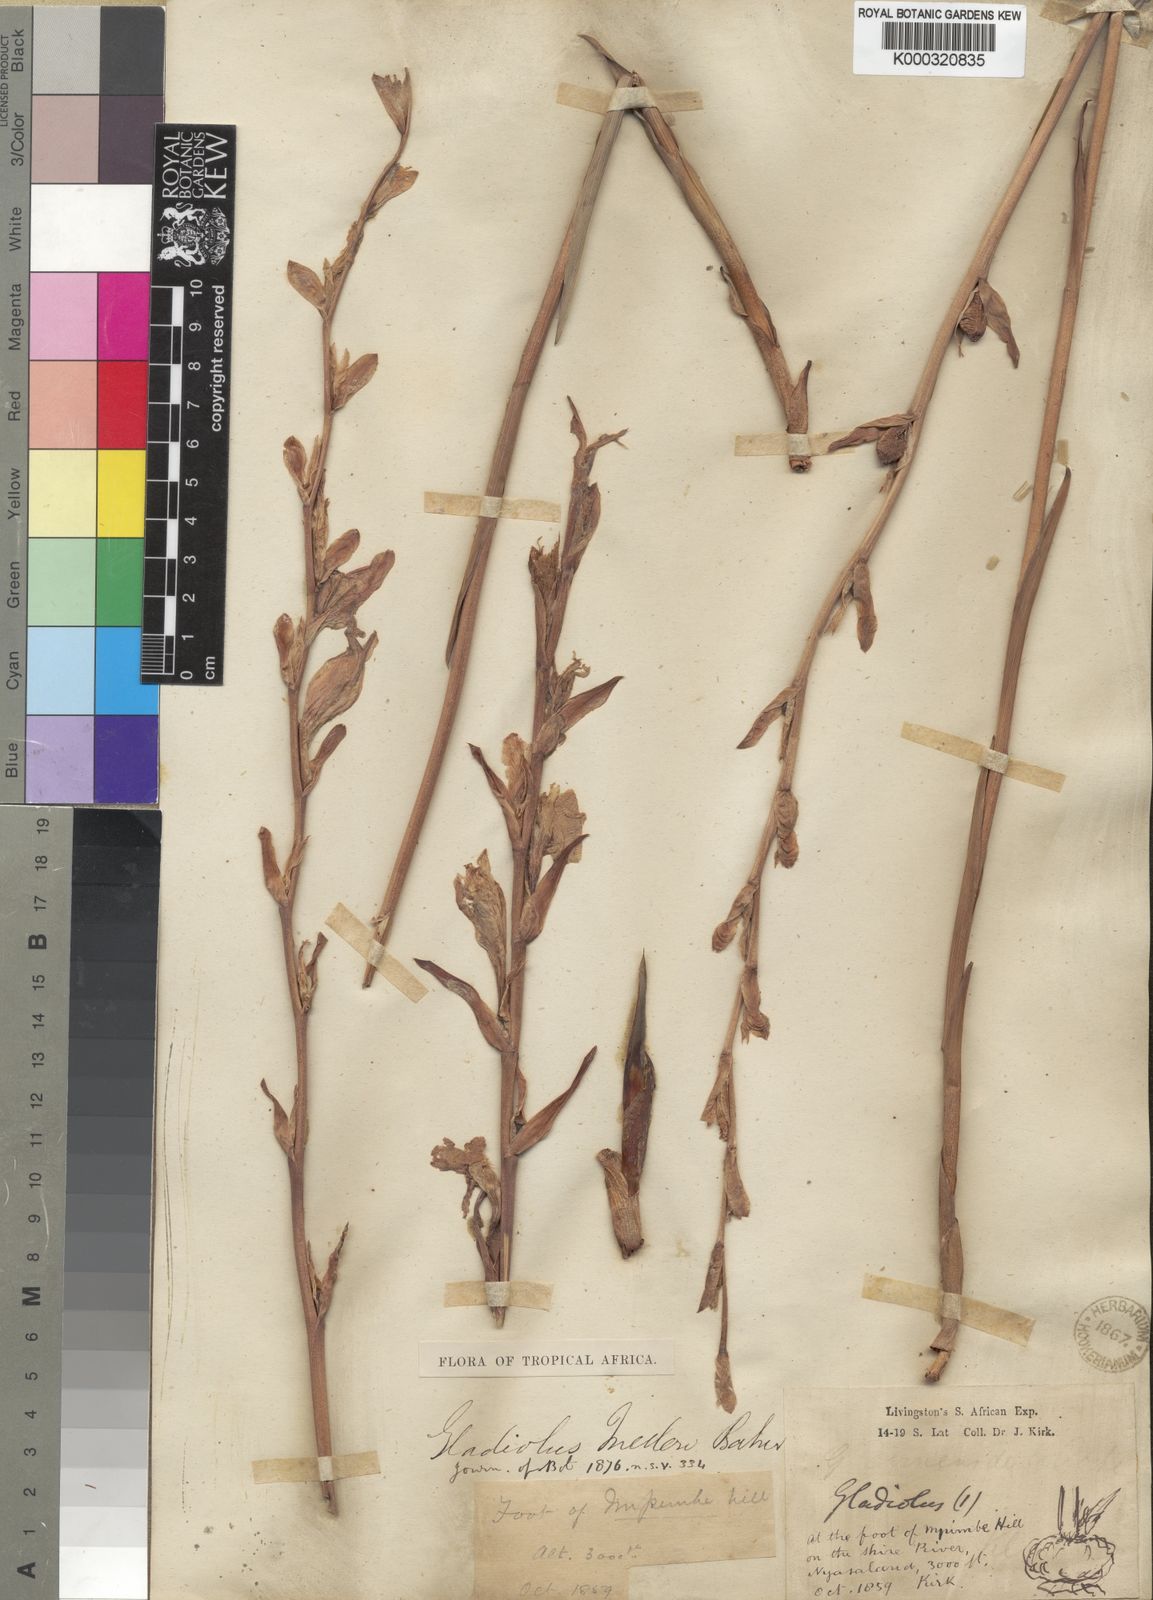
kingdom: Plantae
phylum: Tracheophyta
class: Liliopsida
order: Asparagales
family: Iridaceae
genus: Gladiolus
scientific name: Gladiolus melleri
